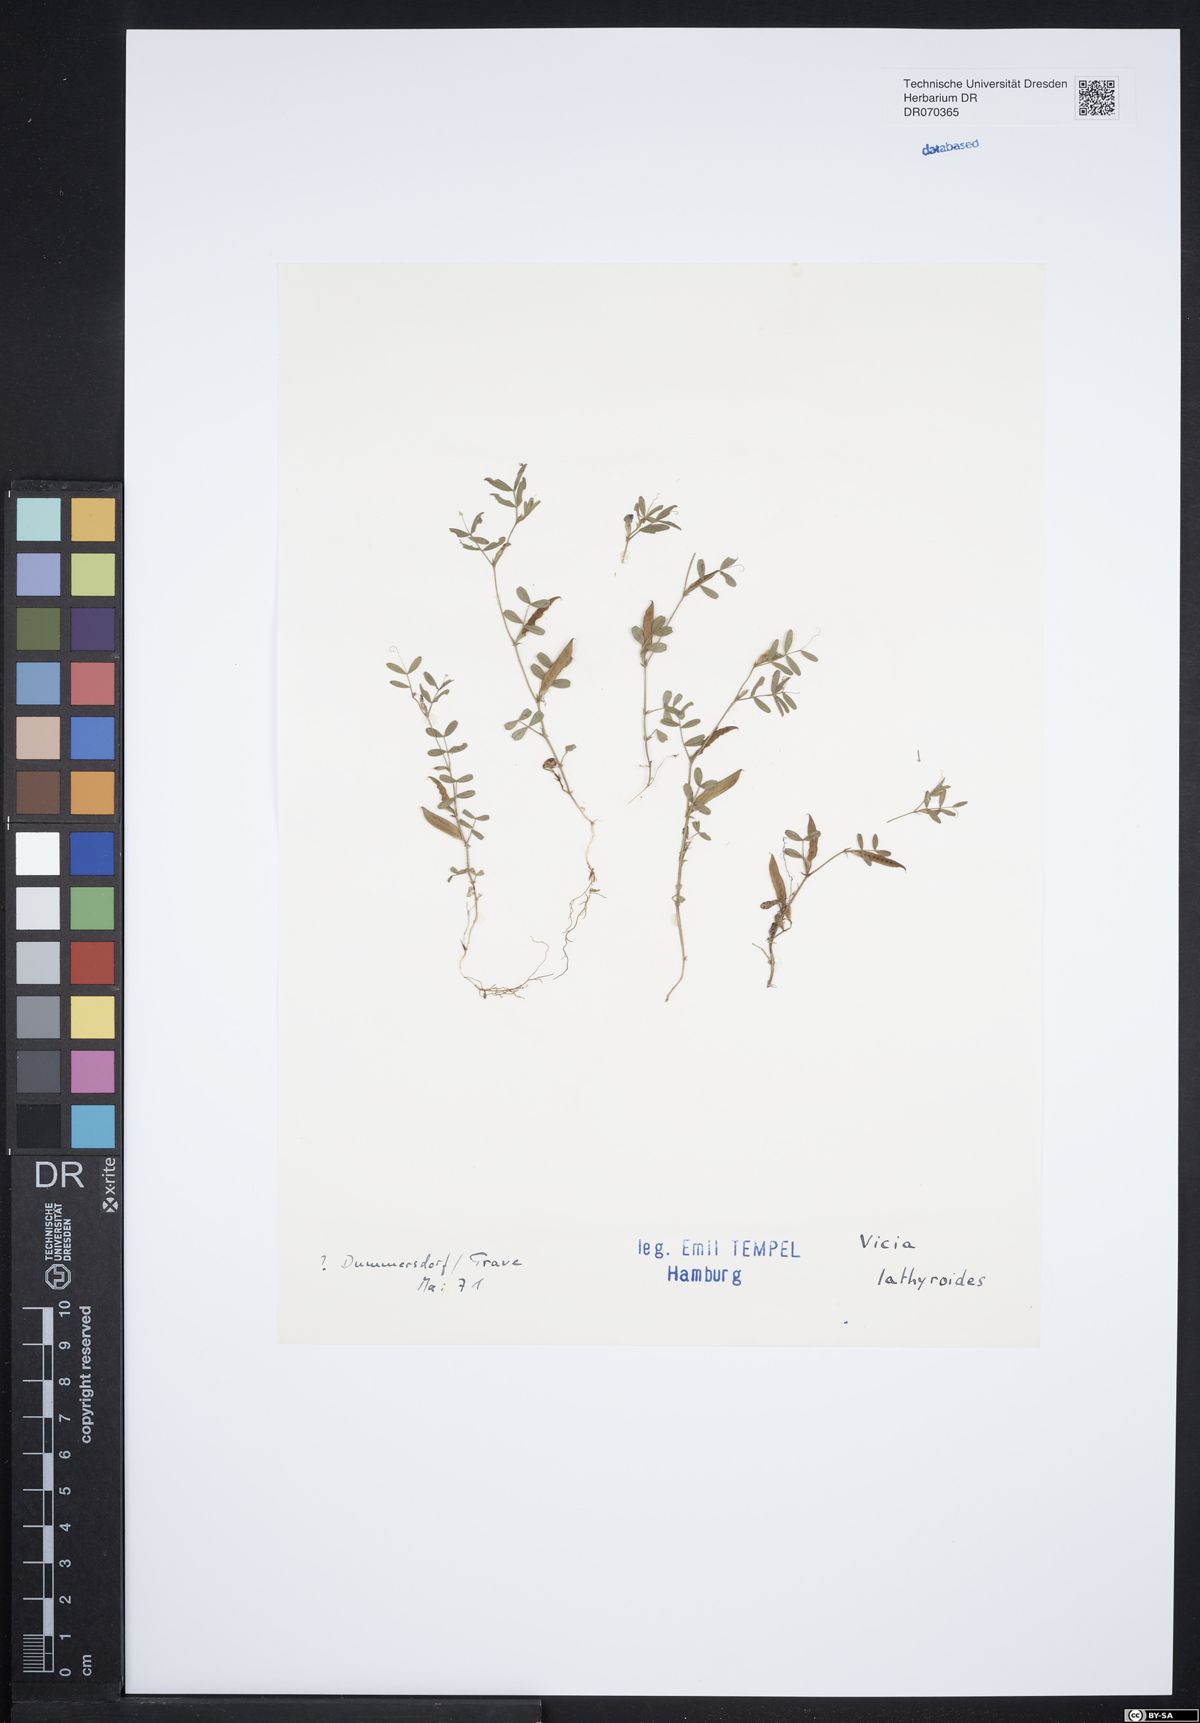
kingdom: Plantae
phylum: Tracheophyta
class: Magnoliopsida
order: Fabales
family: Fabaceae
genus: Vicia
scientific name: Vicia lathyroides
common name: Spring vetch
